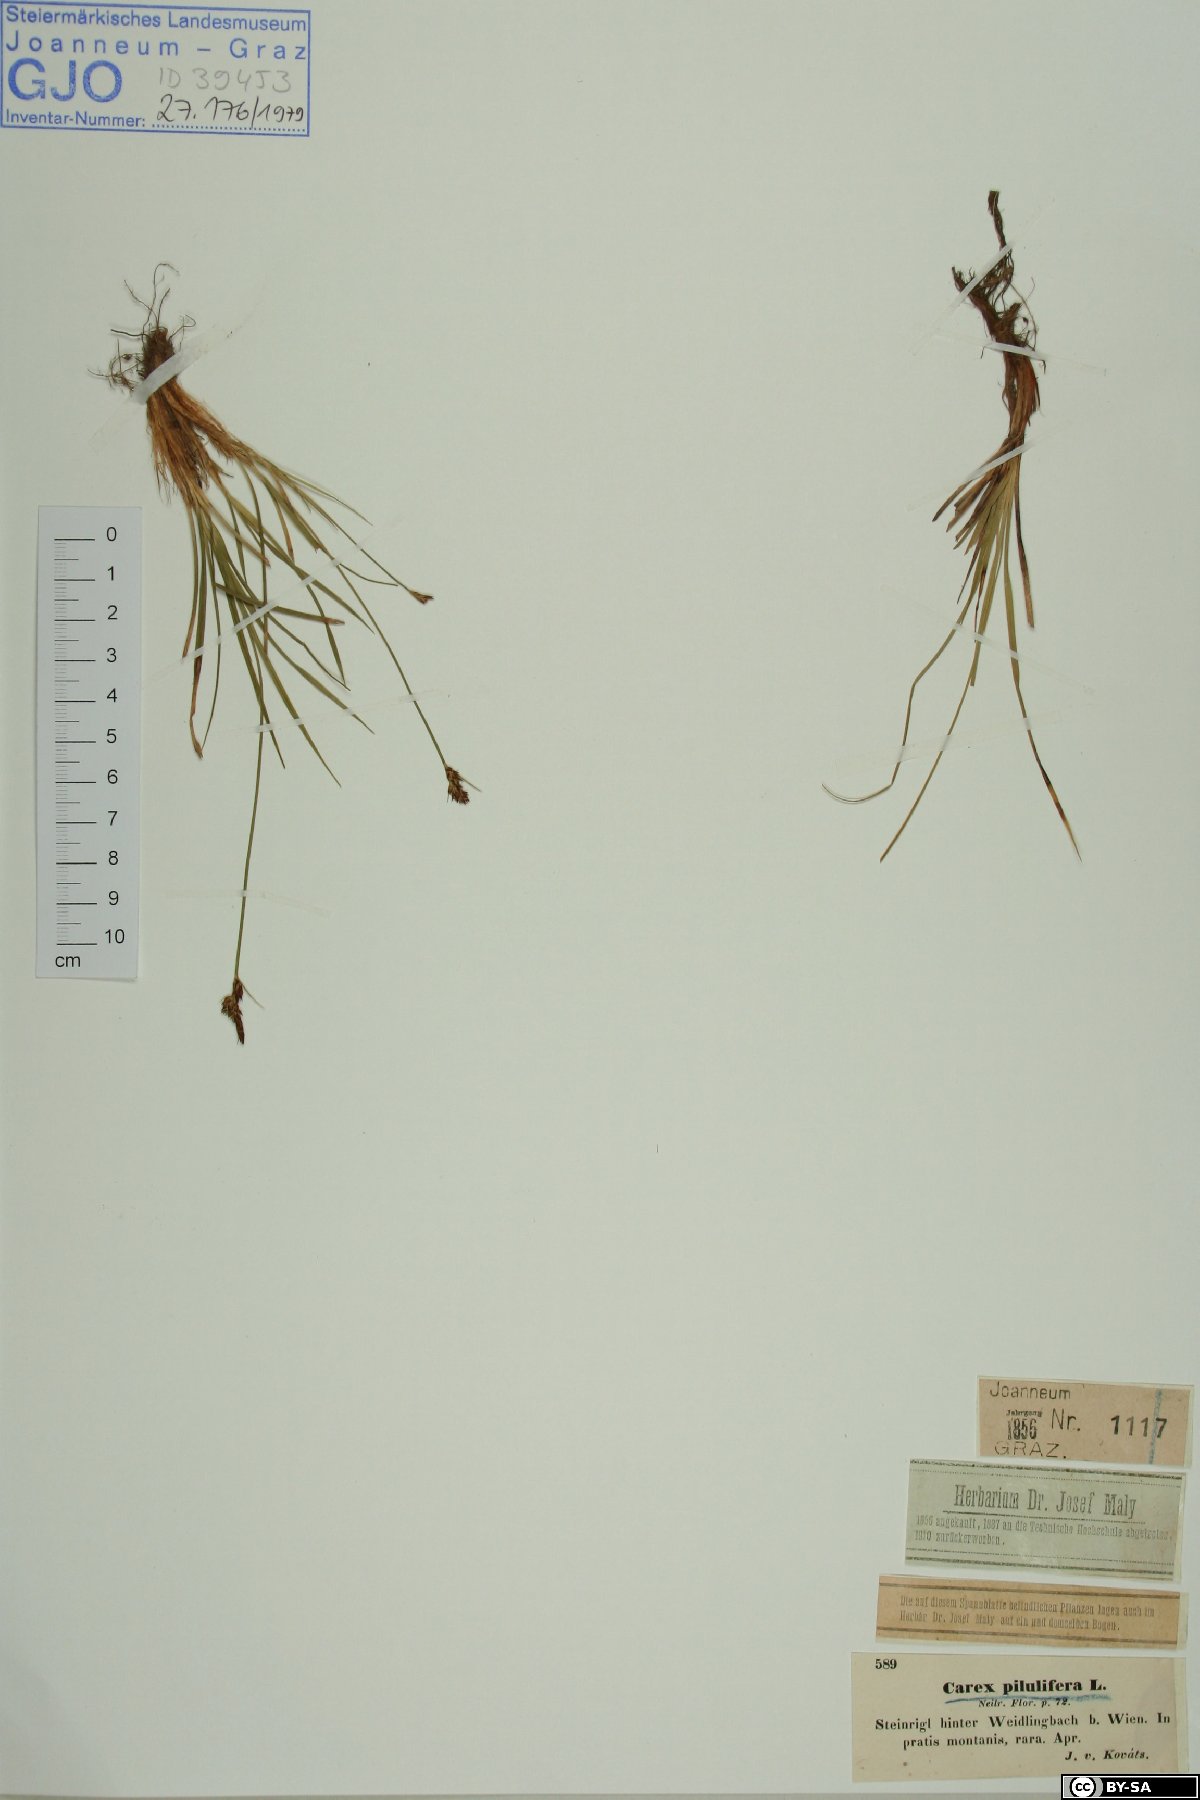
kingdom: Plantae
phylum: Tracheophyta
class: Liliopsida
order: Poales
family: Cyperaceae
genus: Carex
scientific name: Carex pilulifera
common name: Pill sedge
